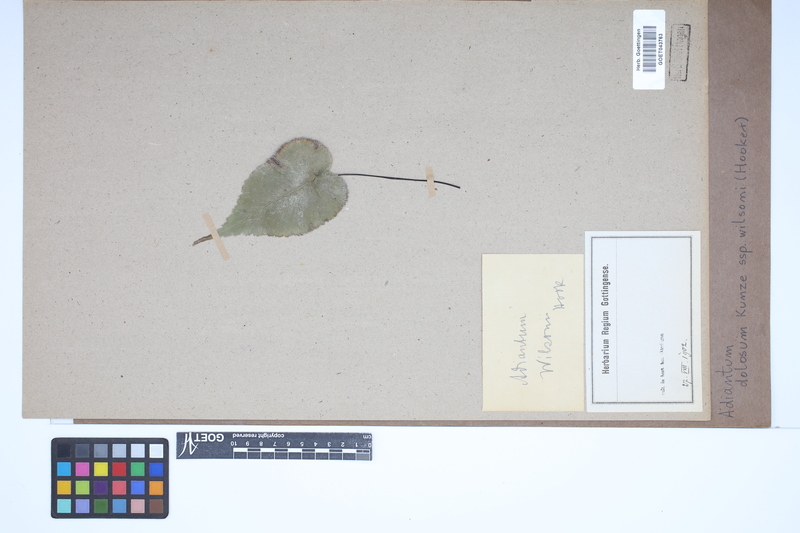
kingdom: Plantae
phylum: Tracheophyta
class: Polypodiopsida
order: Polypodiales
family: Pteridaceae
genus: Adiantum
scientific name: Adiantum dolosum
